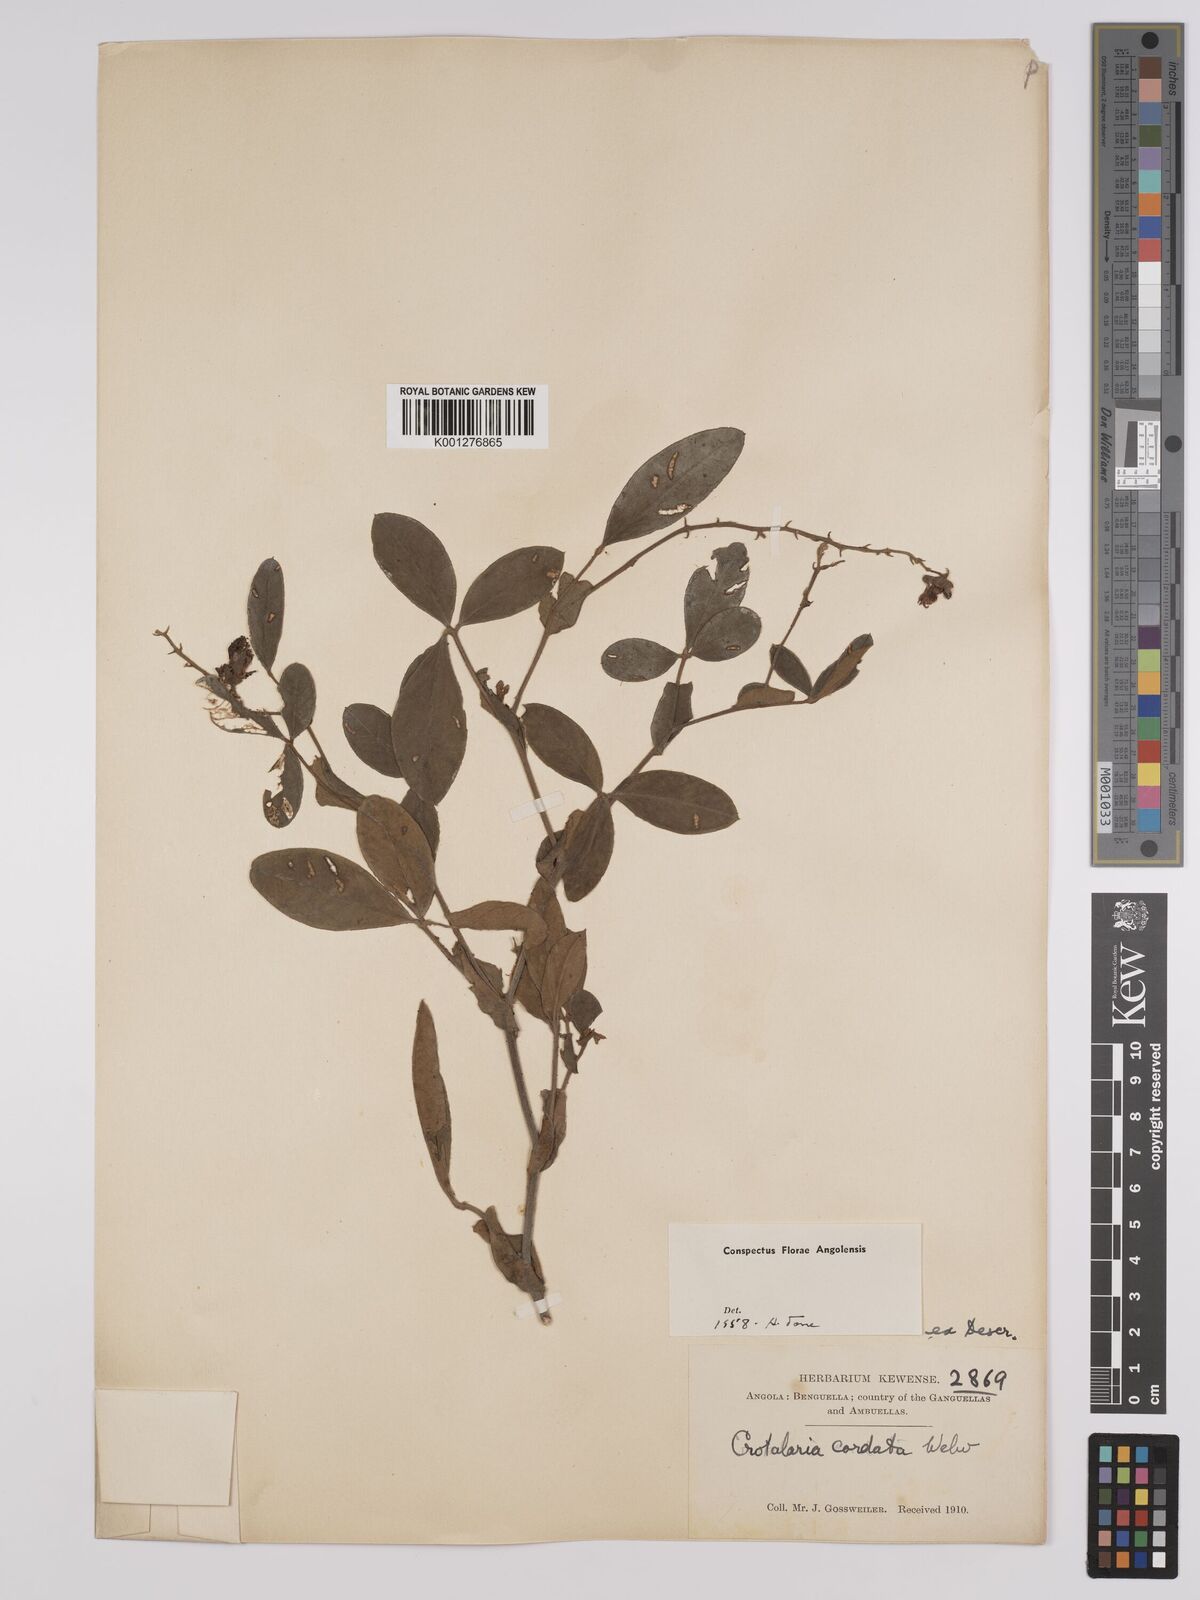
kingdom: Plantae
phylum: Tracheophyta
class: Magnoliopsida
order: Fabales
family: Fabaceae
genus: Crotalaria
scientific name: Crotalaria cordata
